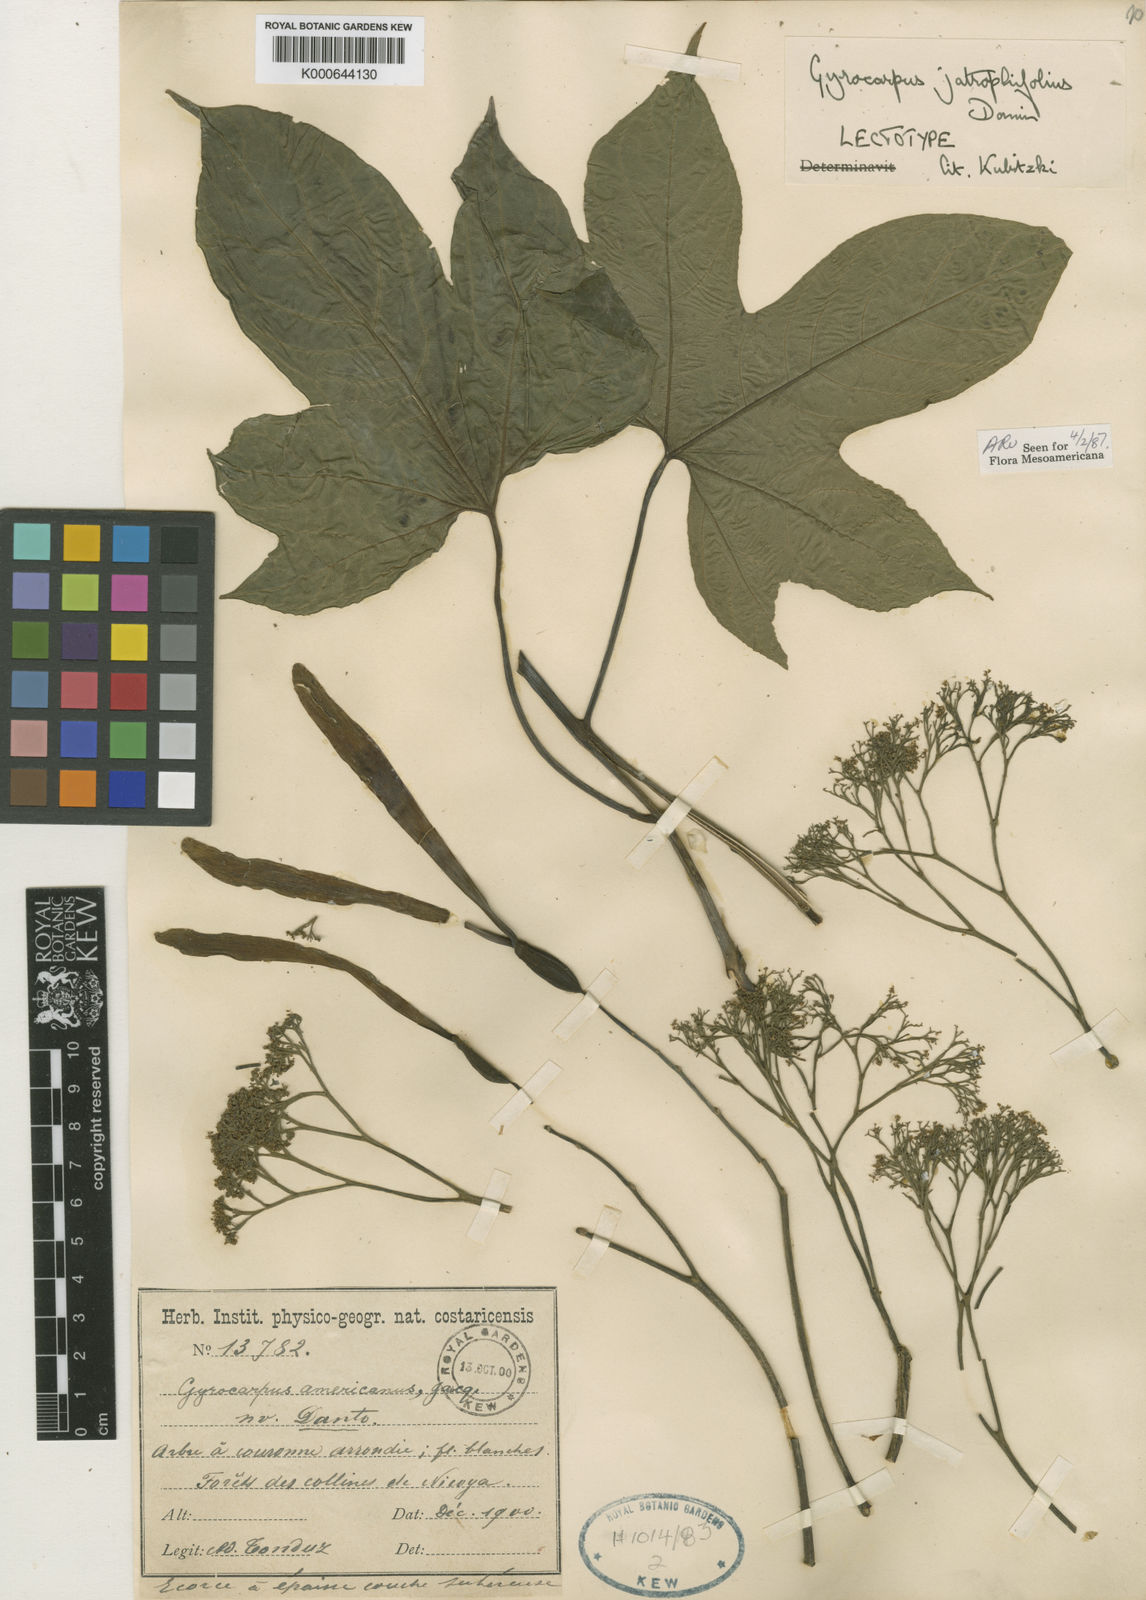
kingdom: Plantae
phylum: Tracheophyta
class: Magnoliopsida
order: Laurales
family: Hernandiaceae
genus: Gyrocarpus
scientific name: Gyrocarpus jatrophifolius
